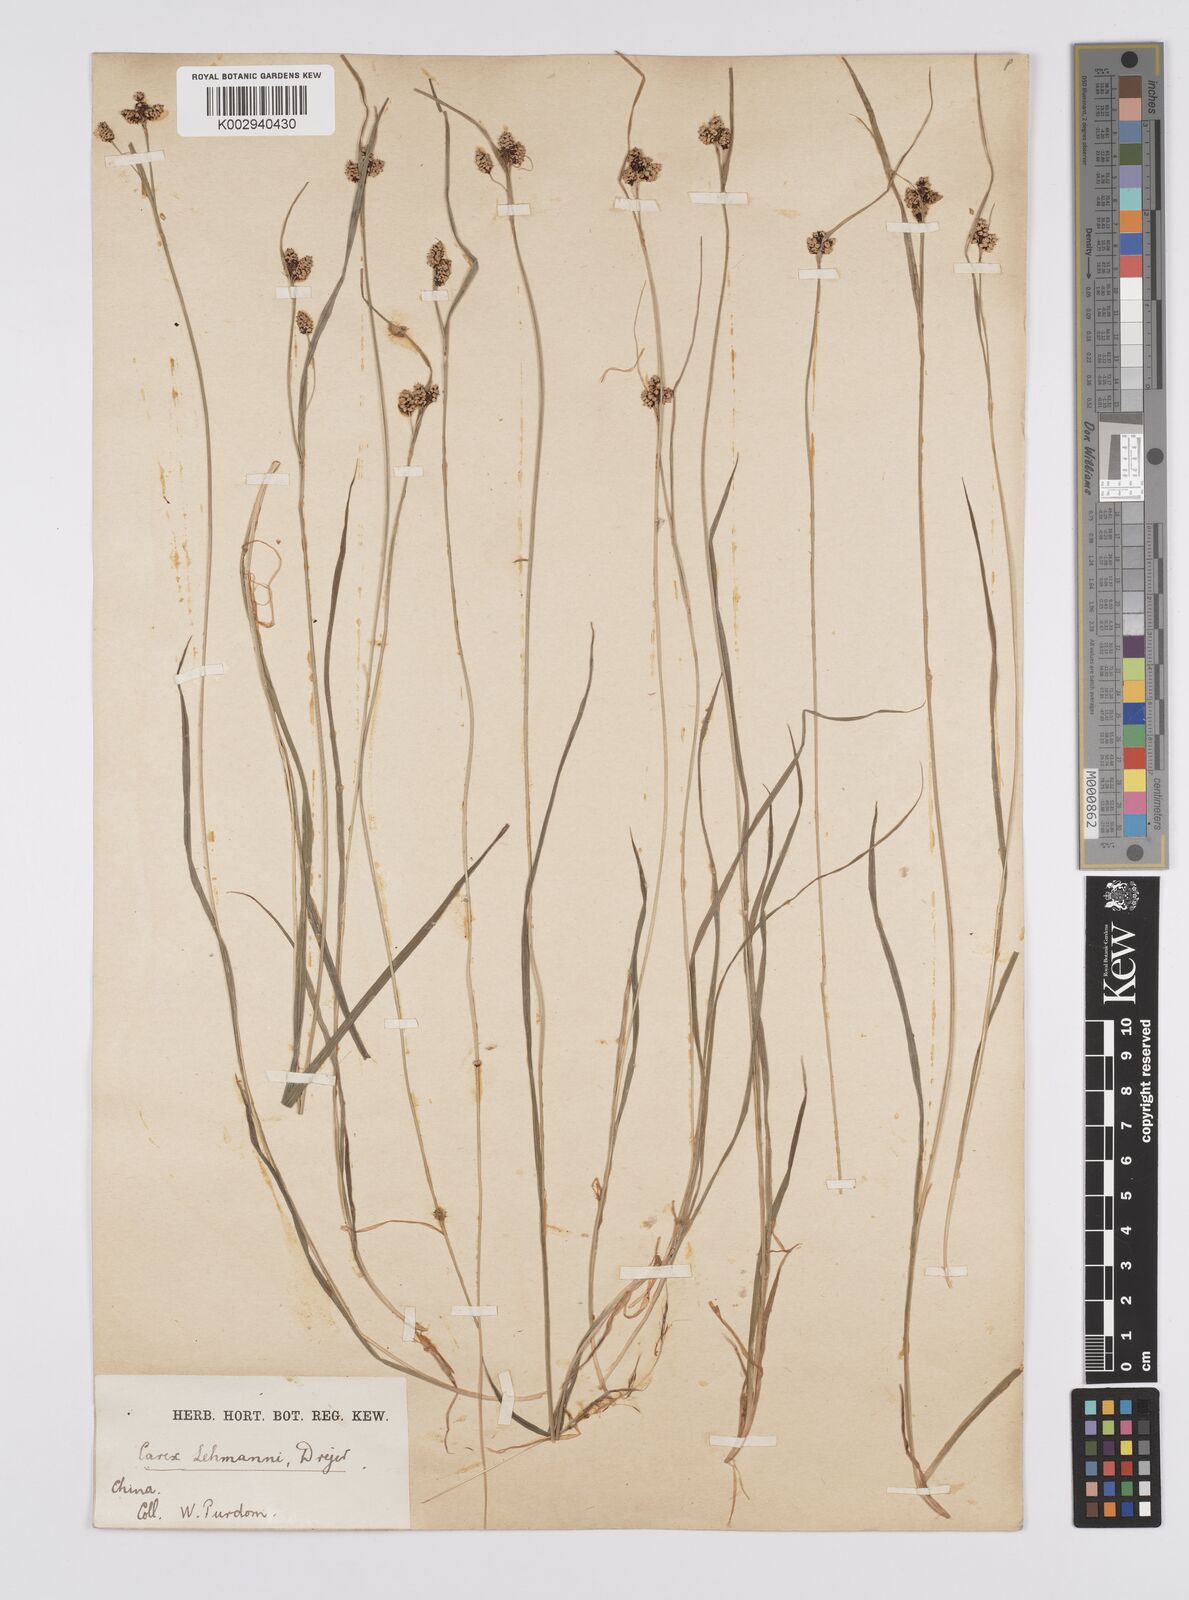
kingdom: Plantae
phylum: Tracheophyta
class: Liliopsida
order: Poales
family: Cyperaceae
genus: Carex
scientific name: Carex lehmannii
